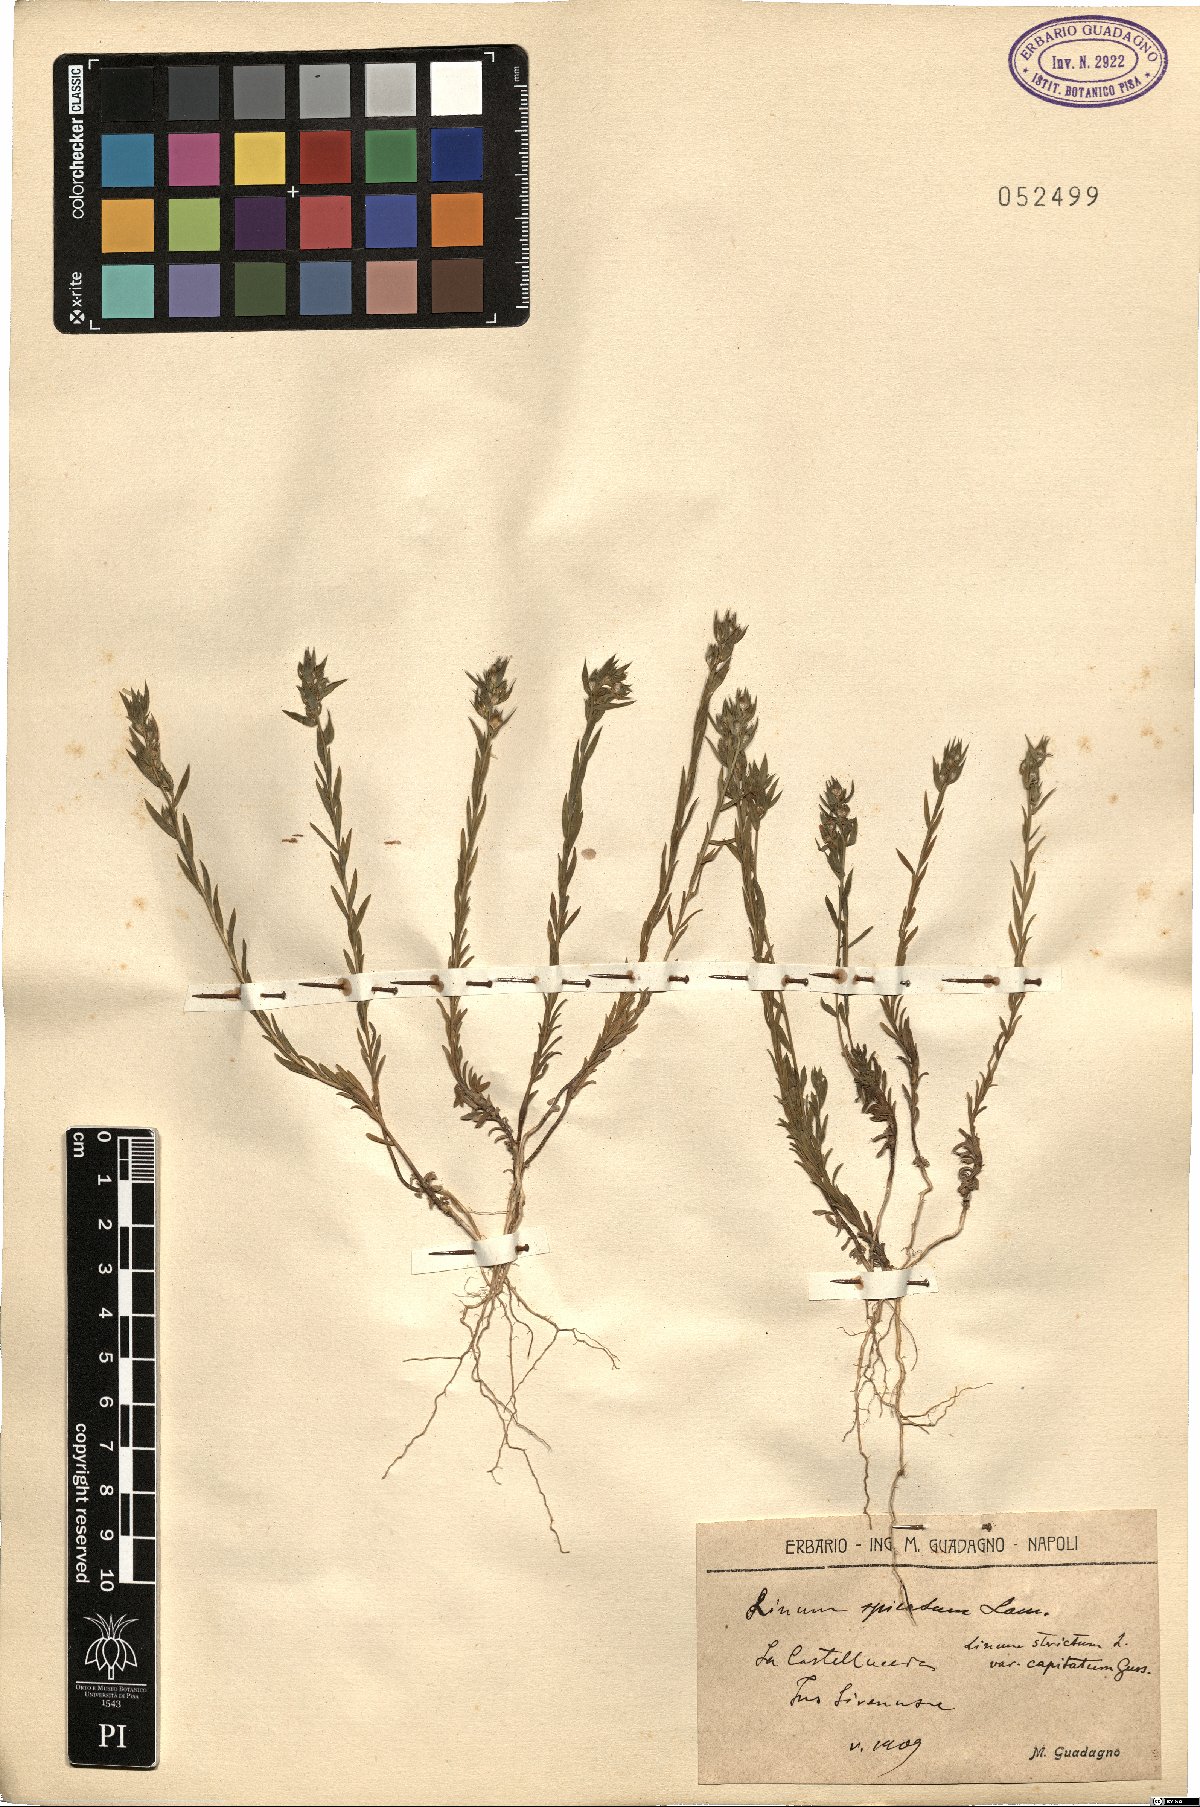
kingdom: Plantae
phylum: Tracheophyta
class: Magnoliopsida
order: Malpighiales
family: Linaceae
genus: Linum
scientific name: Linum strictum
